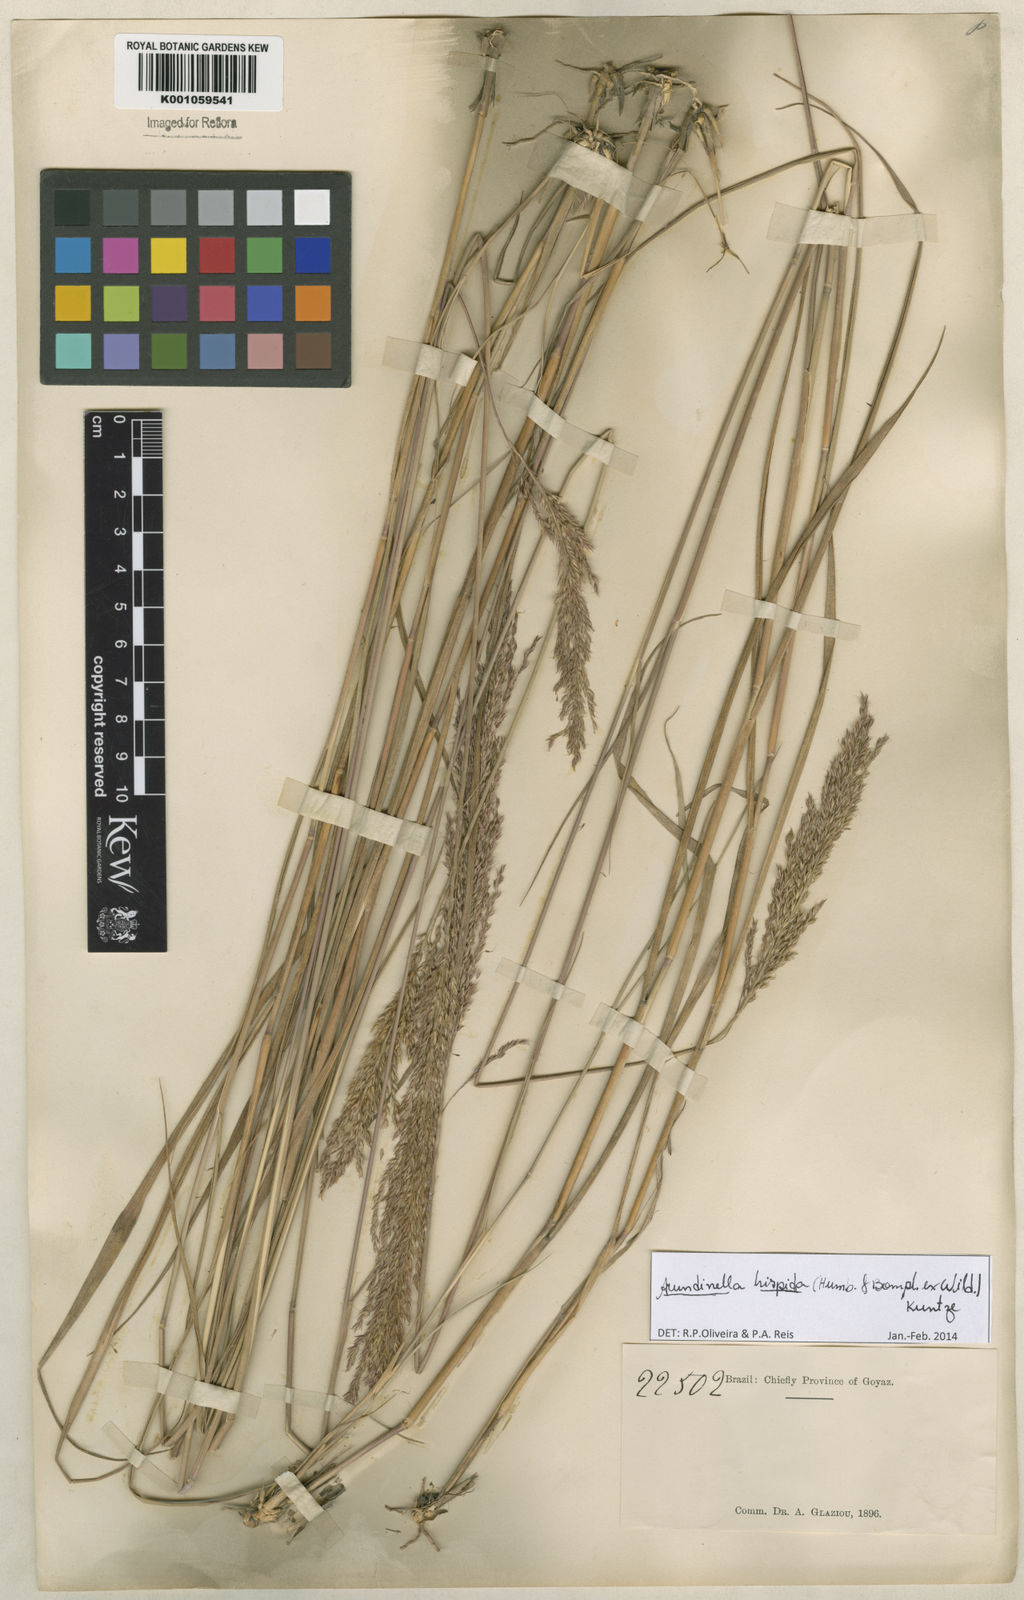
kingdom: Plantae
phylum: Tracheophyta
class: Liliopsida
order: Poales
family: Poaceae
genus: Arundinella
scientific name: Arundinella hispida
